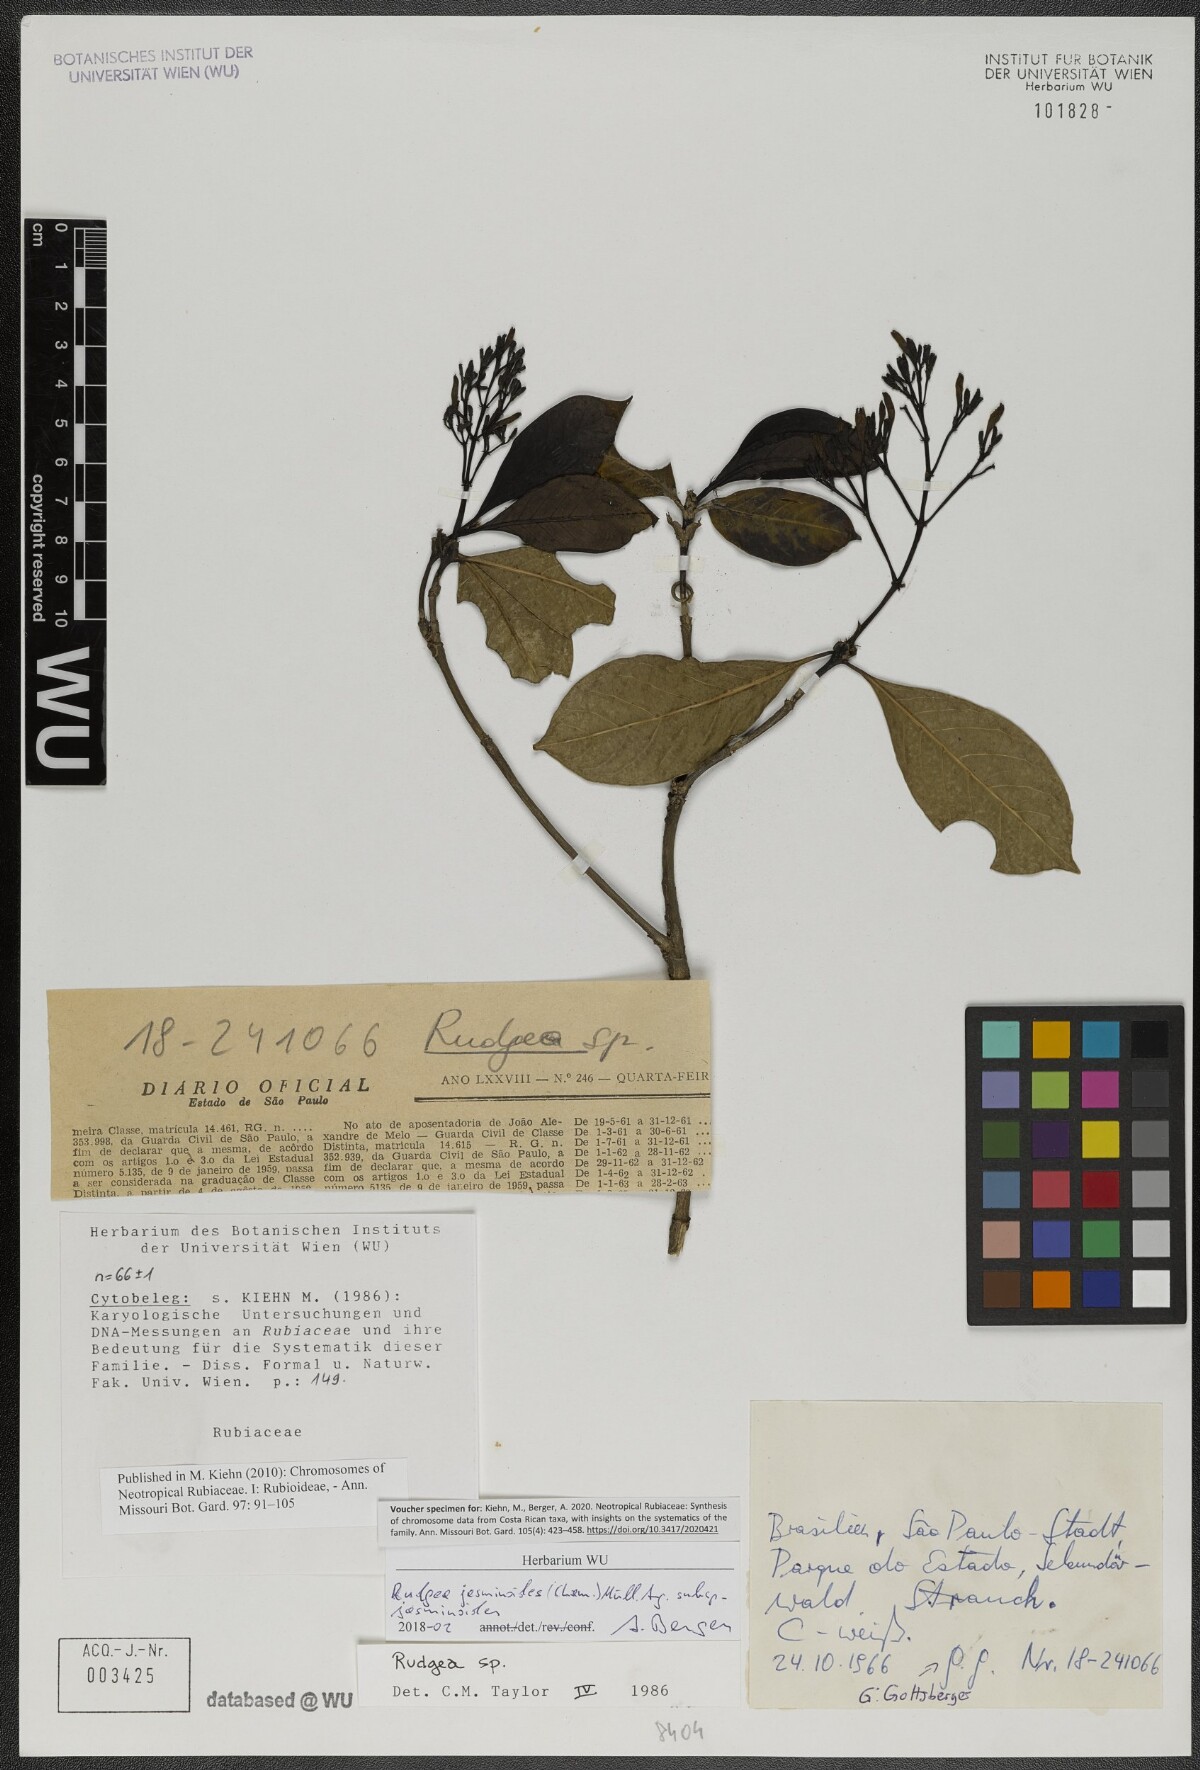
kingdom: Plantae
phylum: Tracheophyta
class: Magnoliopsida
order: Gentianales
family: Rubiaceae
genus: Rudgea
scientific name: Rudgea jasminoides
